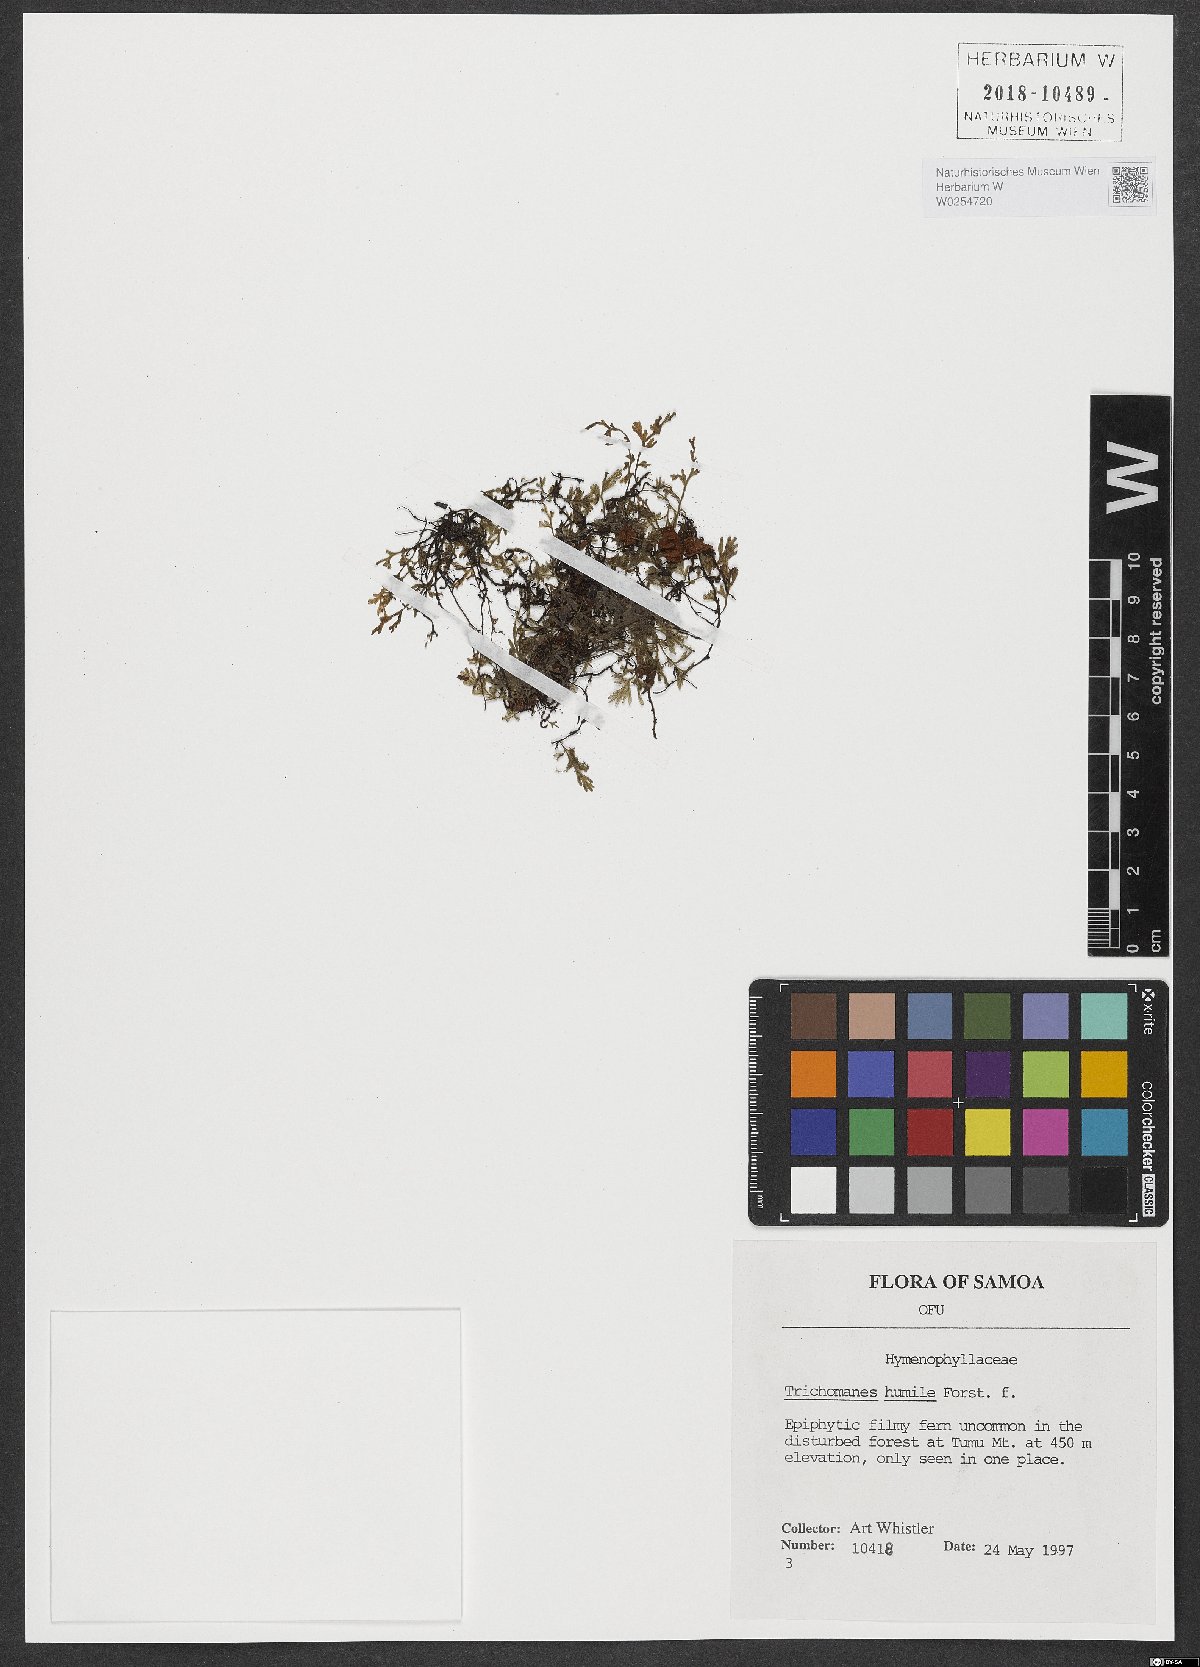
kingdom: Plantae
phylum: Tracheophyta
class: Polypodiopsida
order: Hymenophyllales
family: Hymenophyllaceae
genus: Crepidomanes
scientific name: Crepidomanes humile
